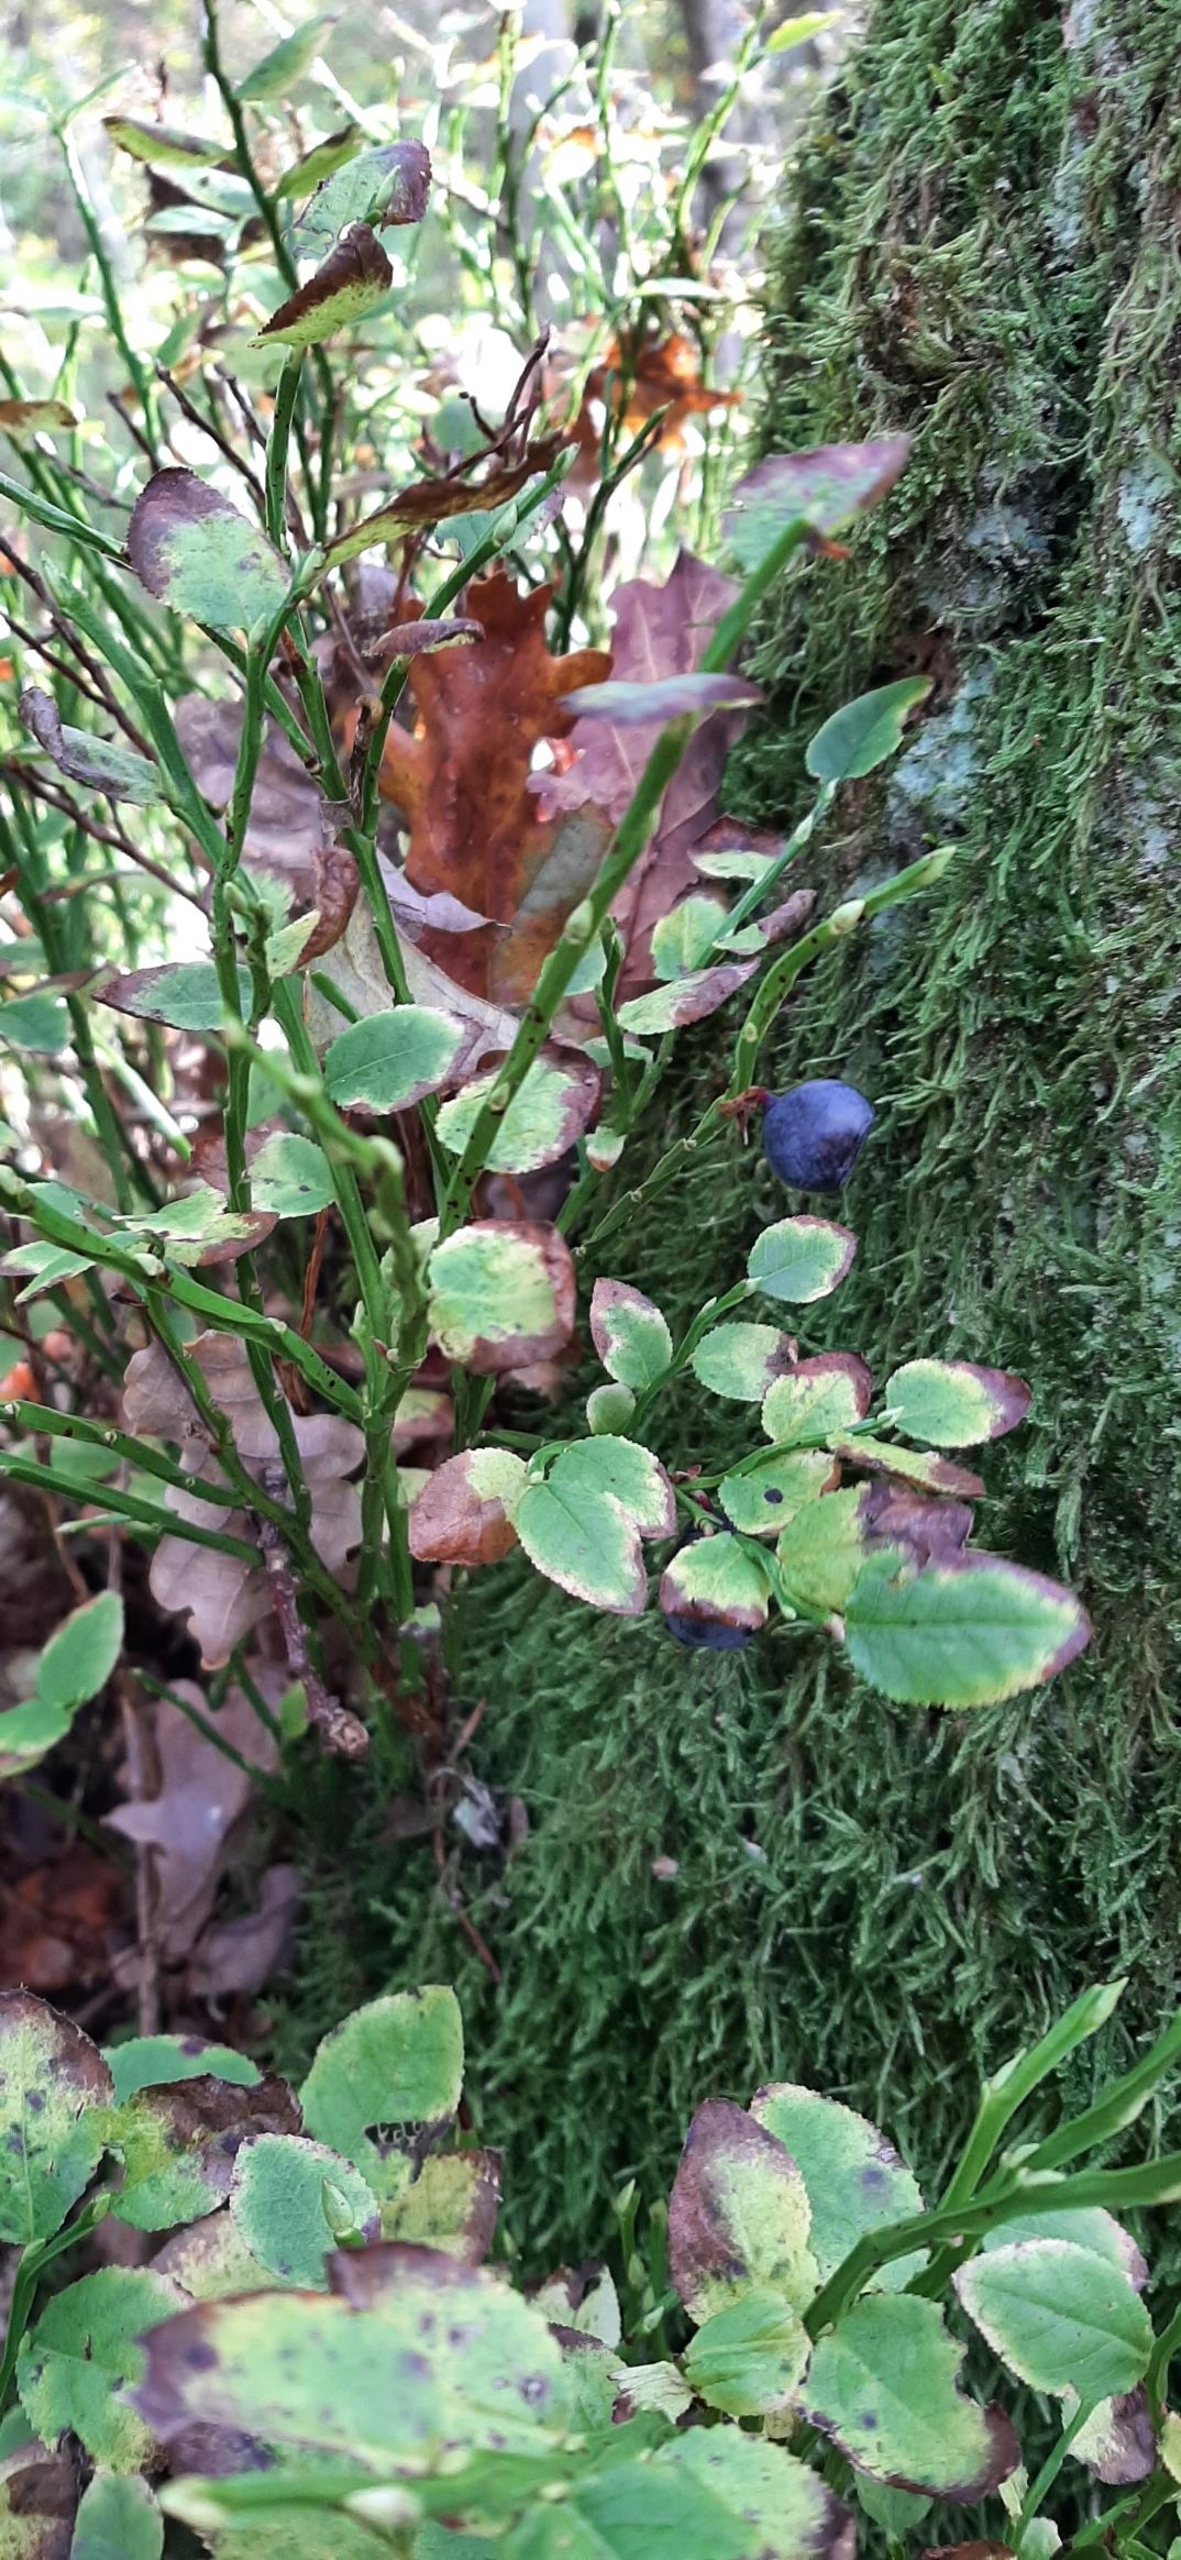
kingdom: Plantae
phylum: Tracheophyta
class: Magnoliopsida
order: Ericales
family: Ericaceae
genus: Vaccinium
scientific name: Vaccinium myrtillus
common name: Blåbær
